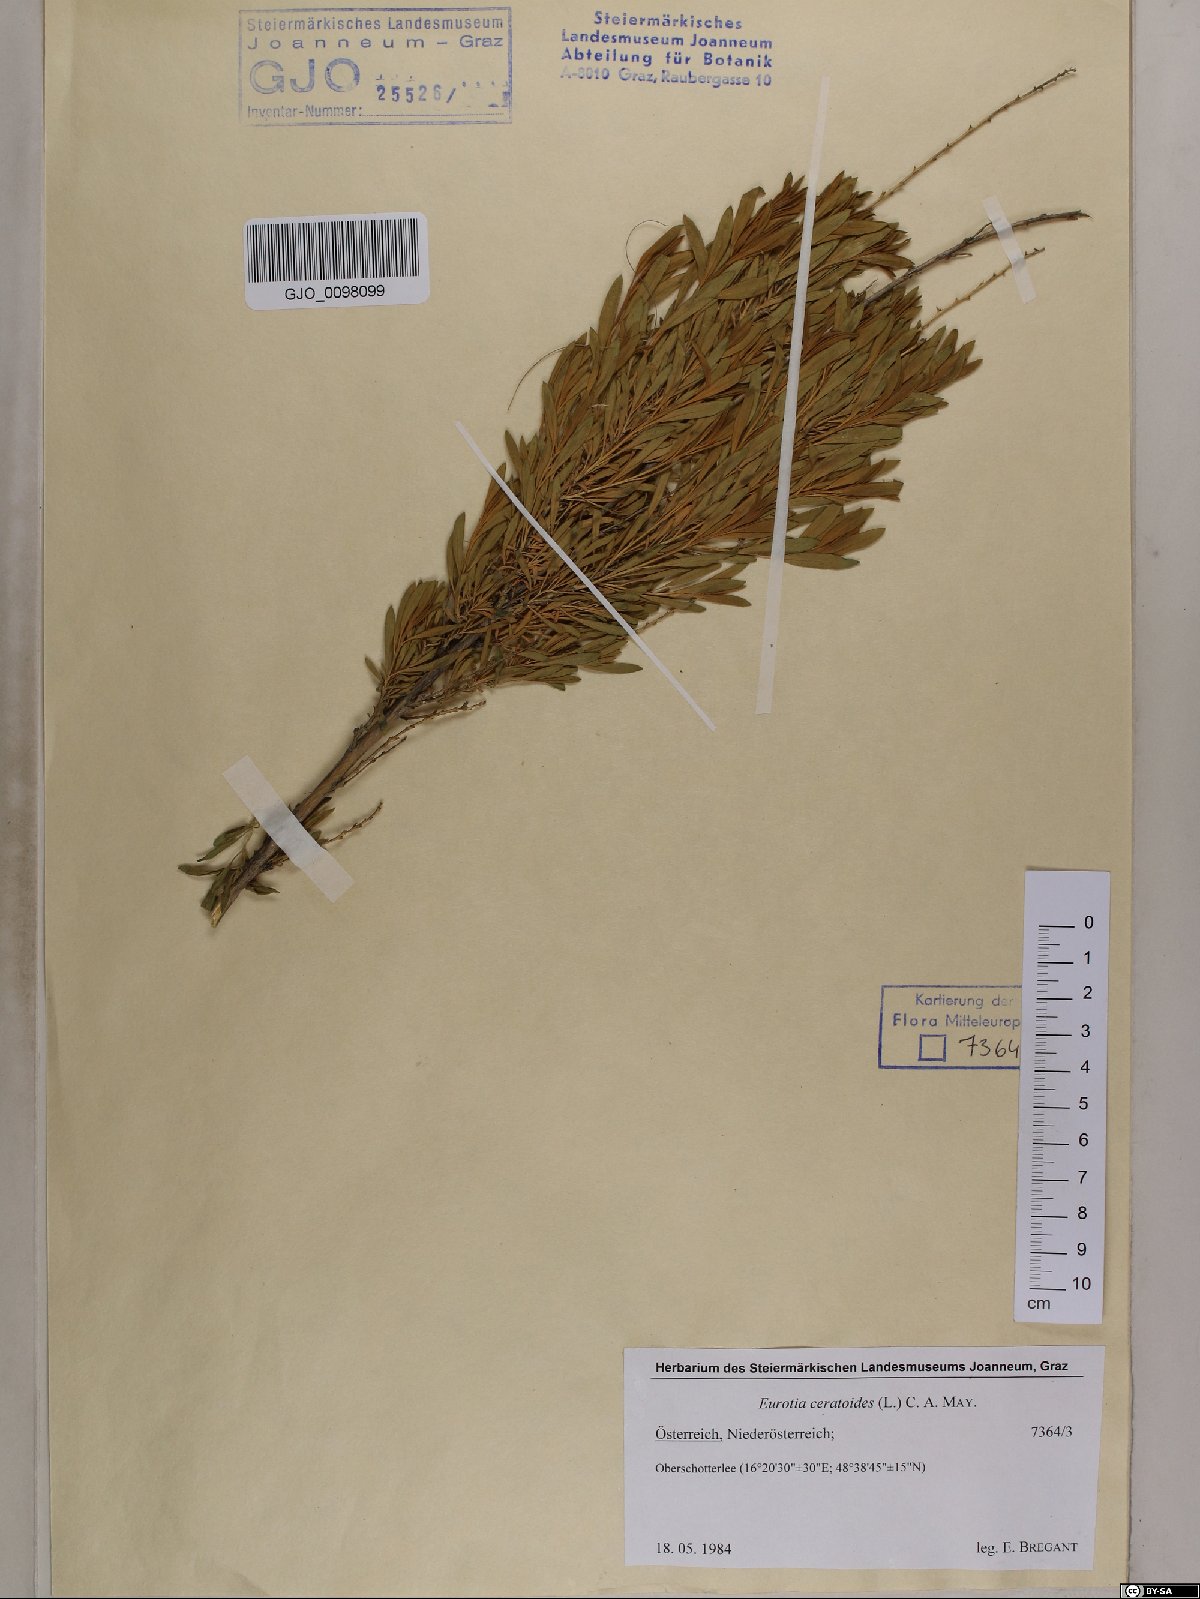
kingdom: Plantae
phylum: Tracheophyta
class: Magnoliopsida
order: Caryophyllales
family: Amaranthaceae
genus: Krascheninnikovia
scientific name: Krascheninnikovia ceratoides
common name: Pamirian winterfat
